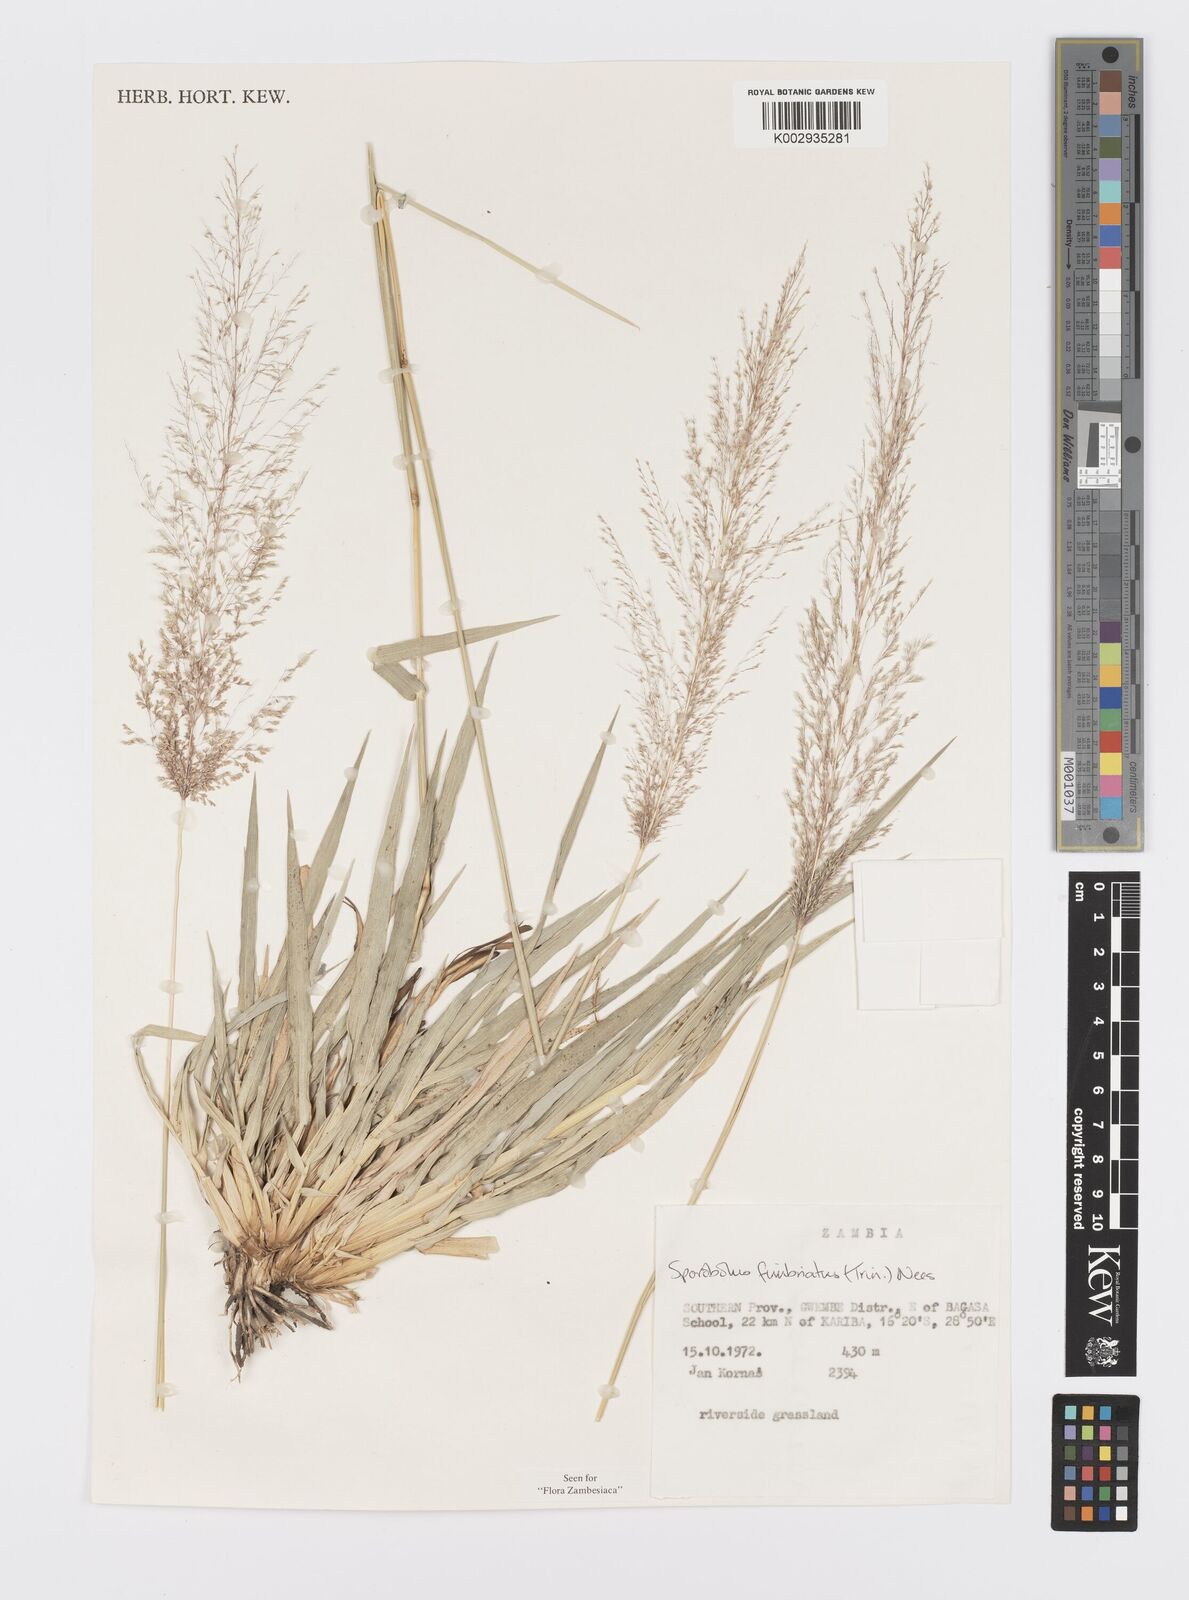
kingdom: Plantae
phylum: Tracheophyta
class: Liliopsida
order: Poales
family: Poaceae
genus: Sporobolus
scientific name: Sporobolus fimbriatus
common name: Fringed dropseed
